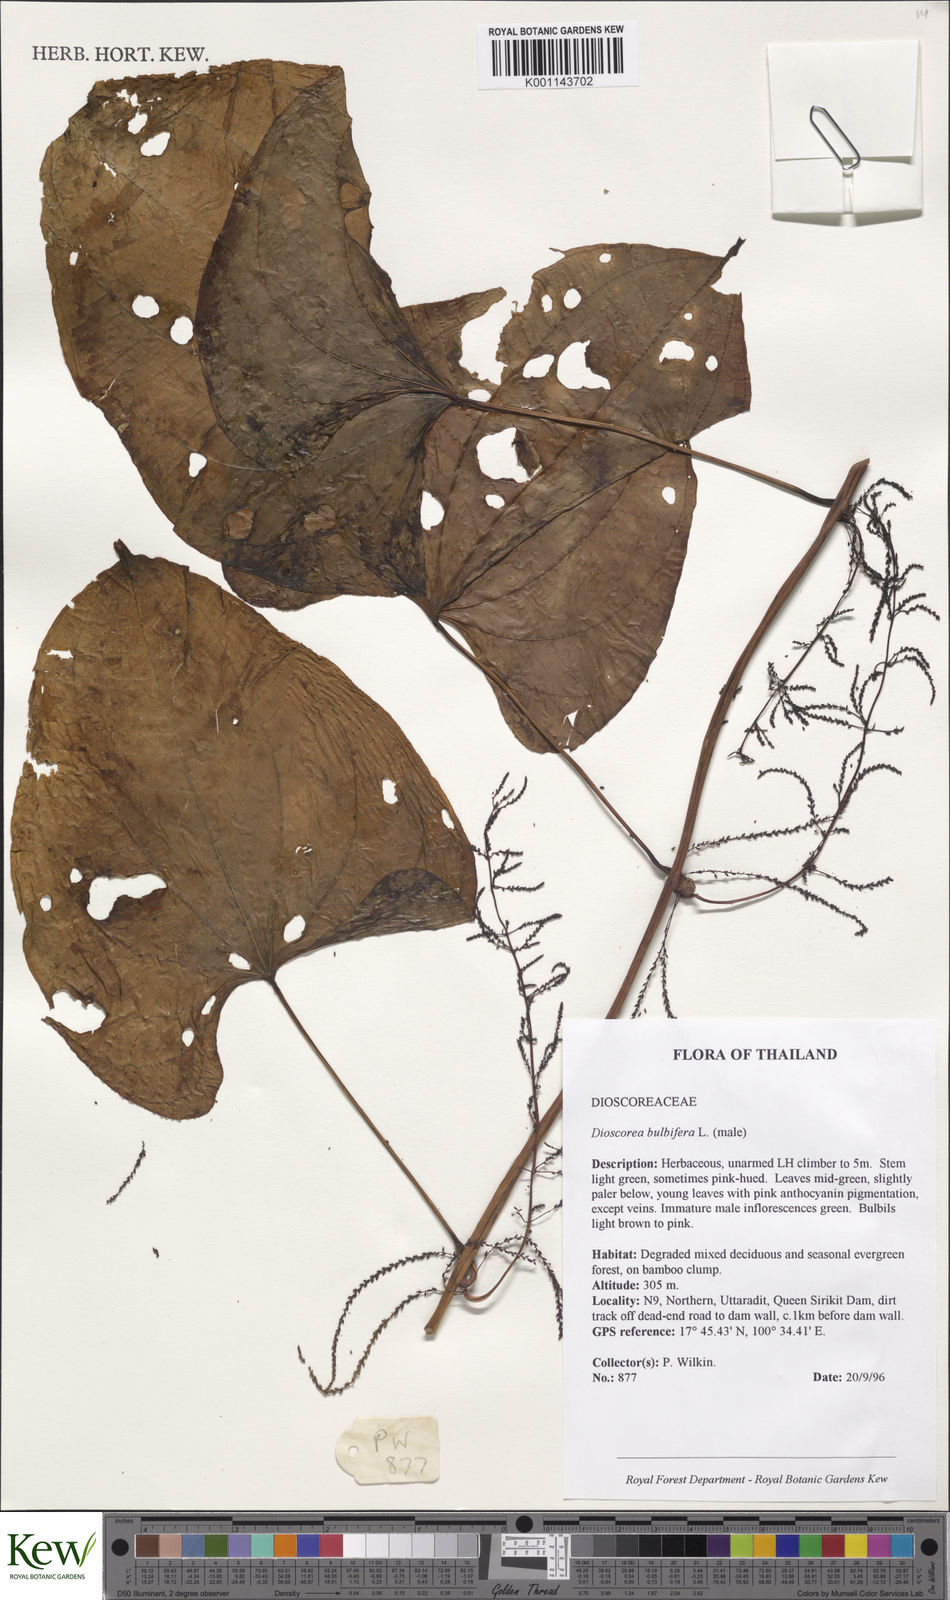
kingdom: Plantae
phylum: Tracheophyta
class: Liliopsida
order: Dioscoreales
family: Dioscoreaceae
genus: Dioscorea
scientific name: Dioscorea
